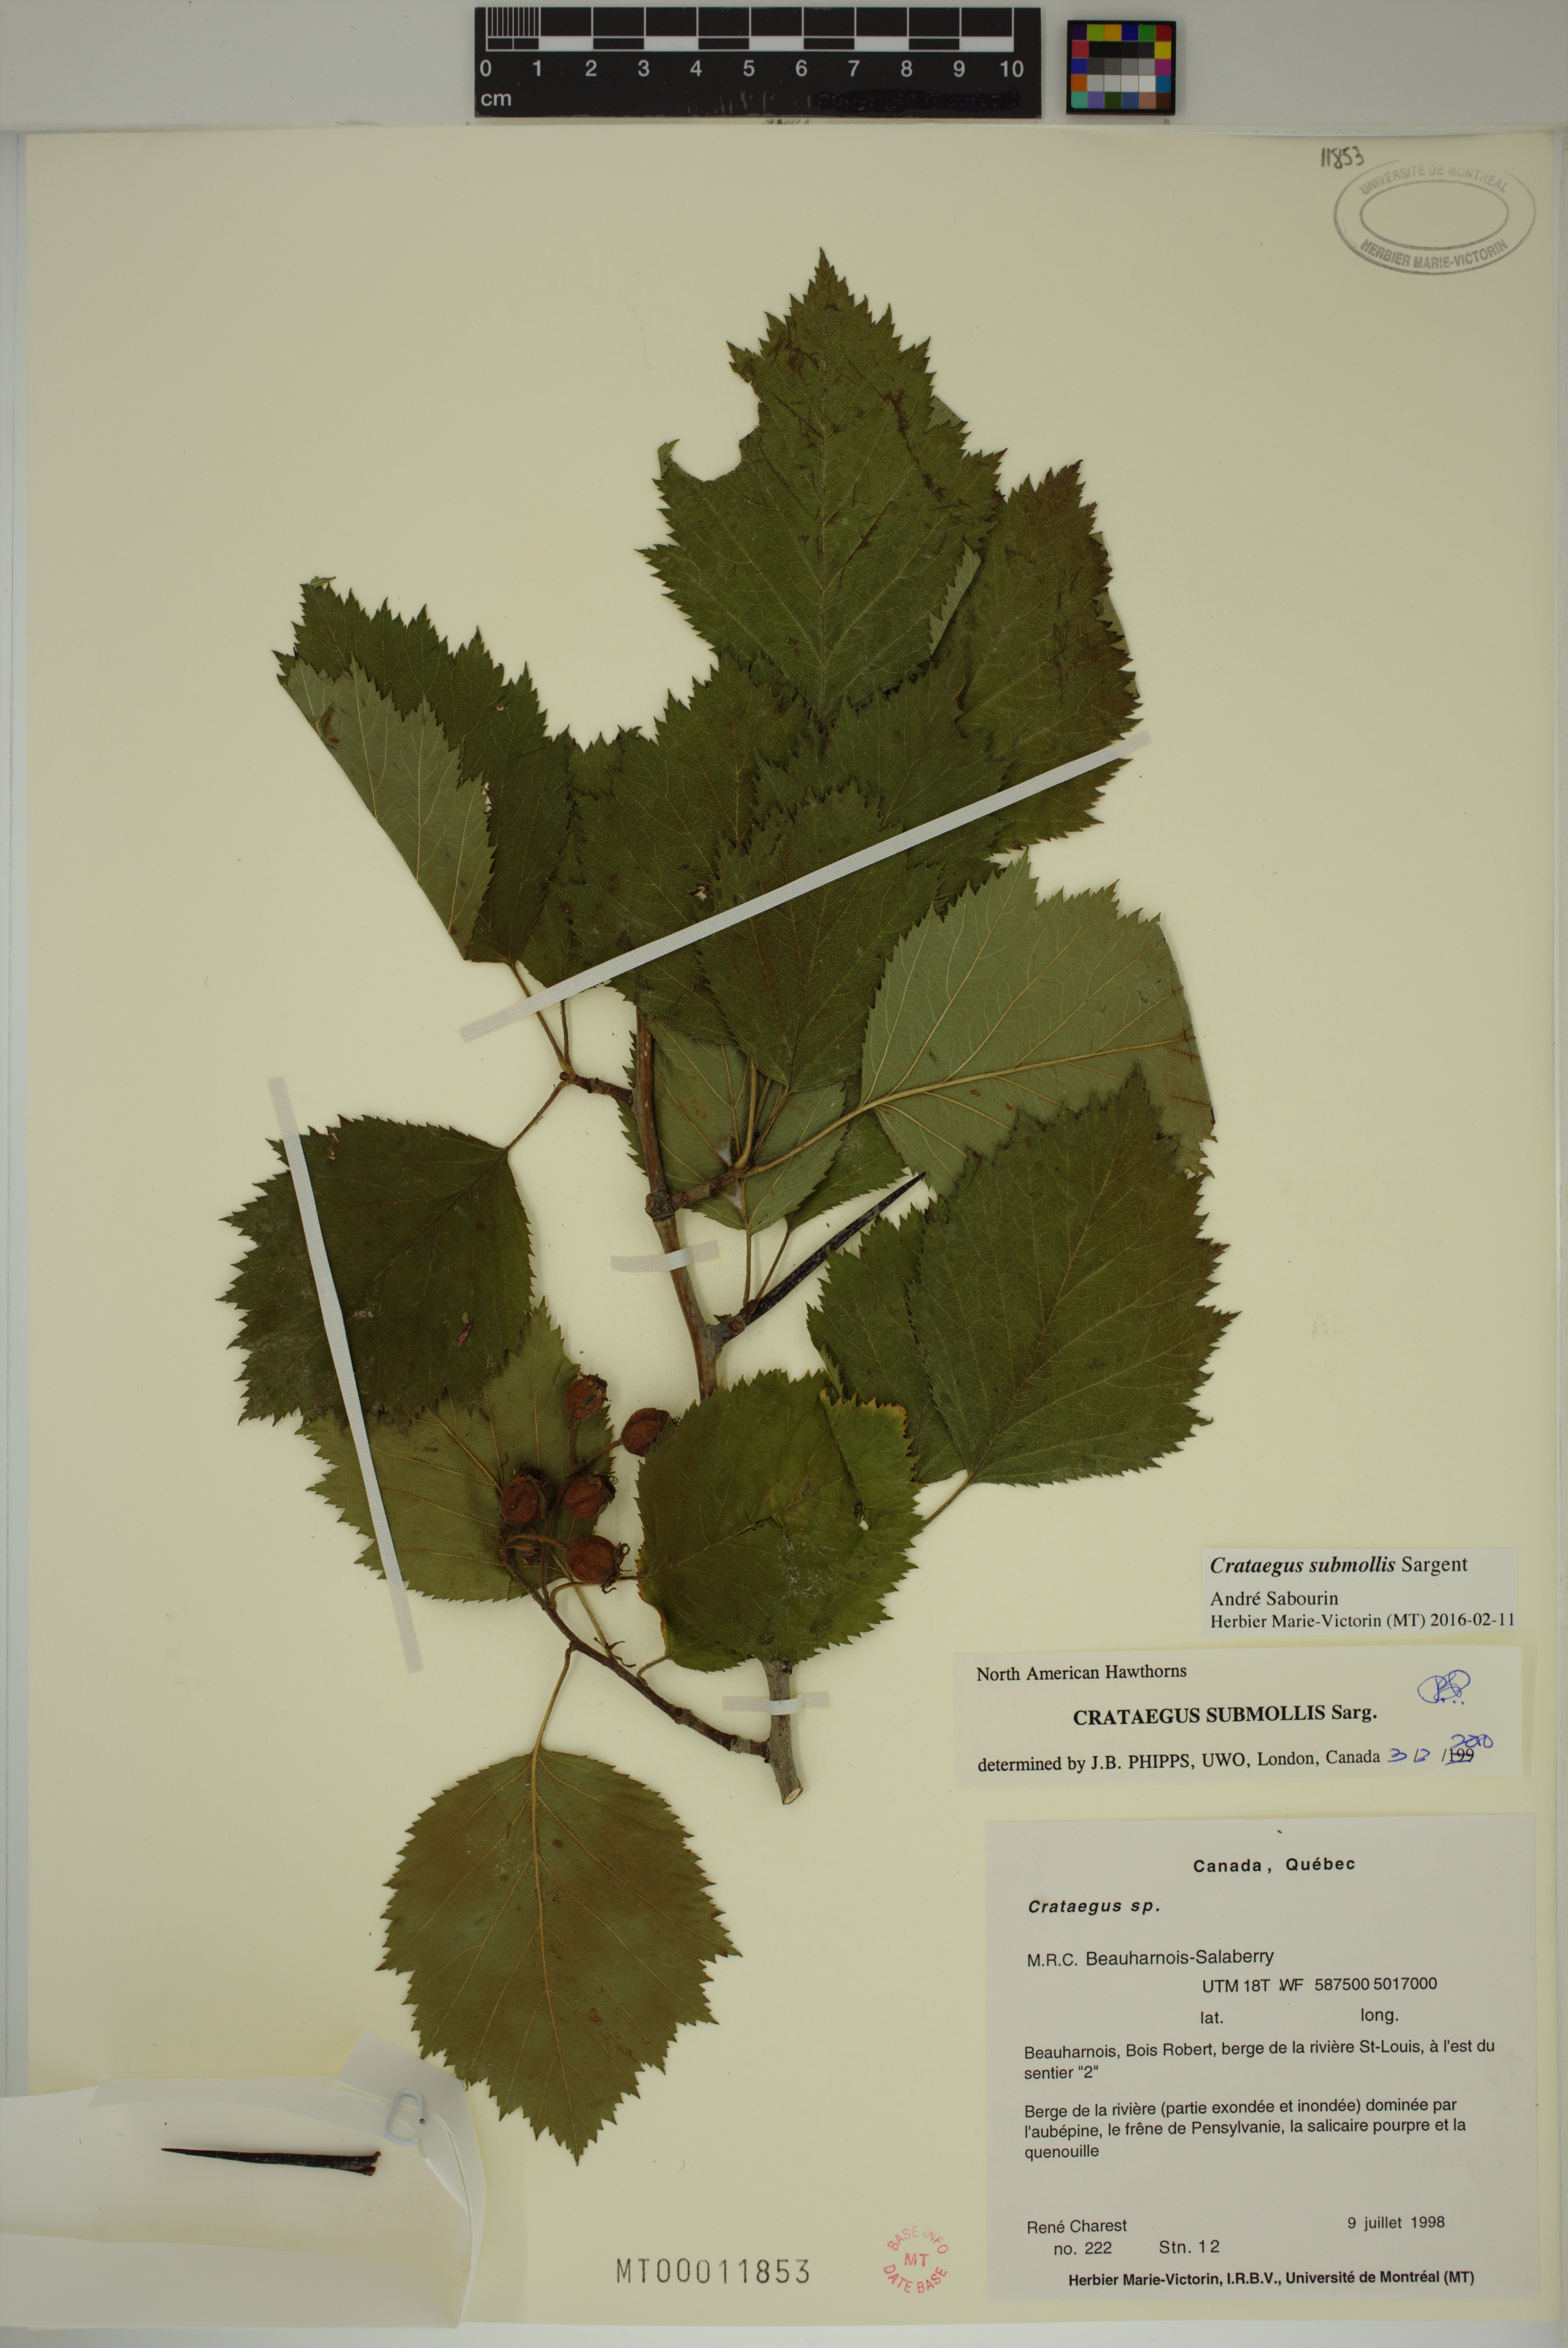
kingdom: Plantae
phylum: Tracheophyta
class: Magnoliopsida
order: Rosales
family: Rosaceae
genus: Crataegus
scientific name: Crataegus submollis
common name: Hairy cockspurthorn
